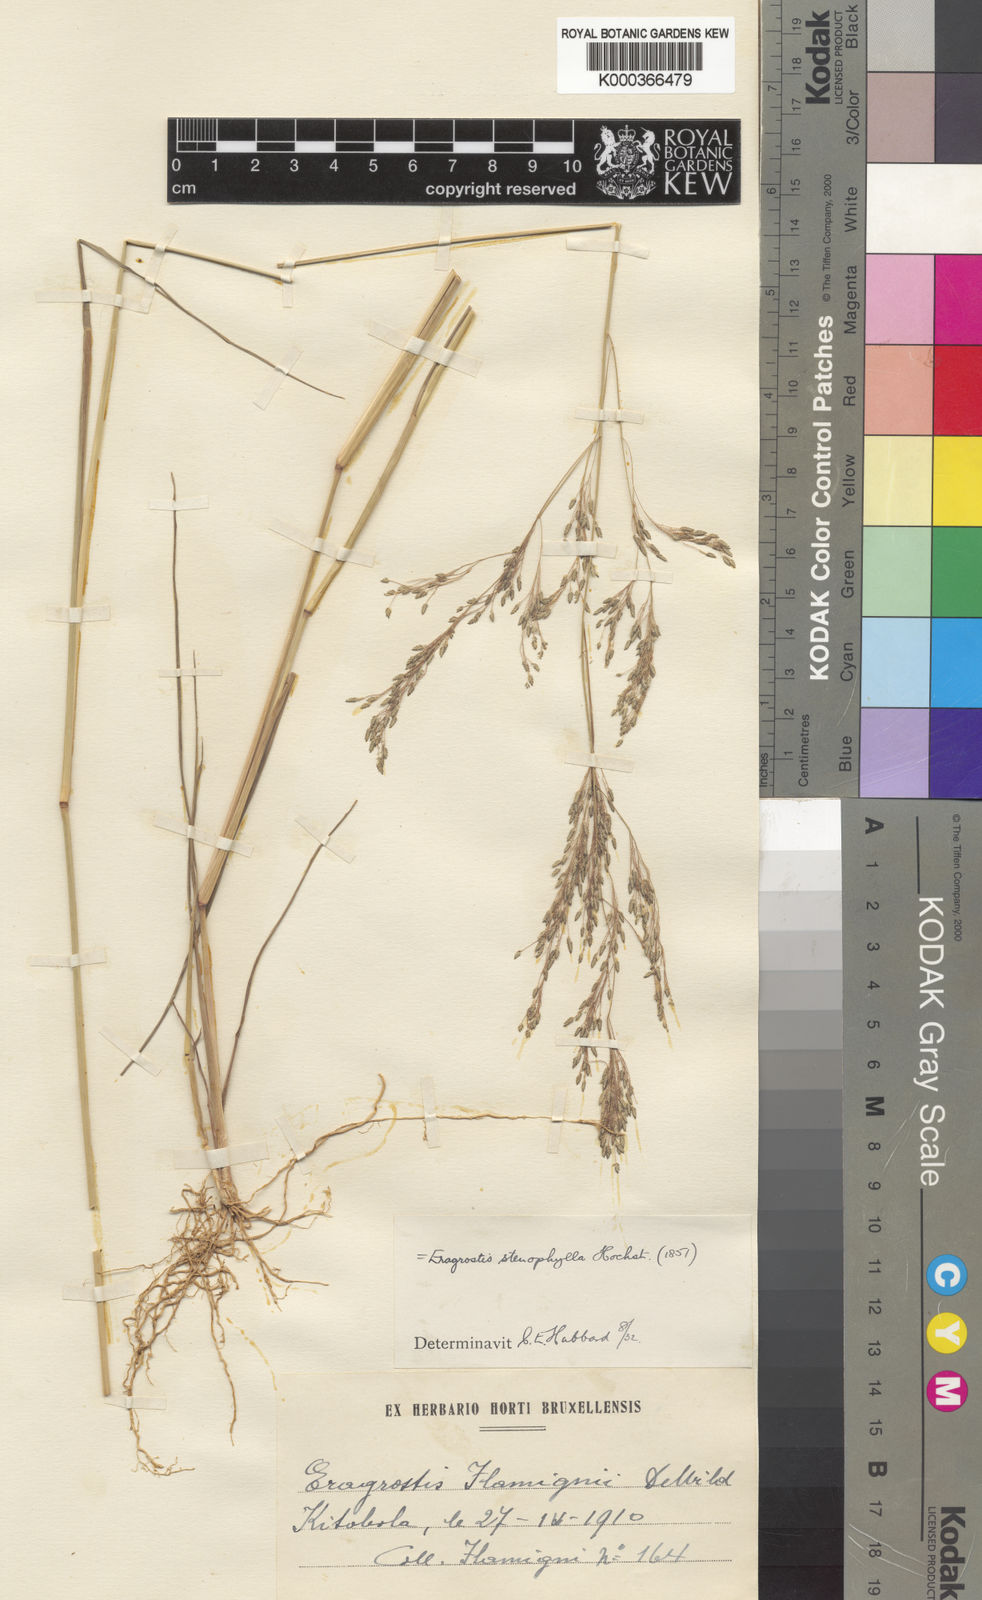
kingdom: Plantae
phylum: Tracheophyta
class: Liliopsida
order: Poales
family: Poaceae
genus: Eragrostis
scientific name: Eragrostis gangetica
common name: Slimflower lovegrass
